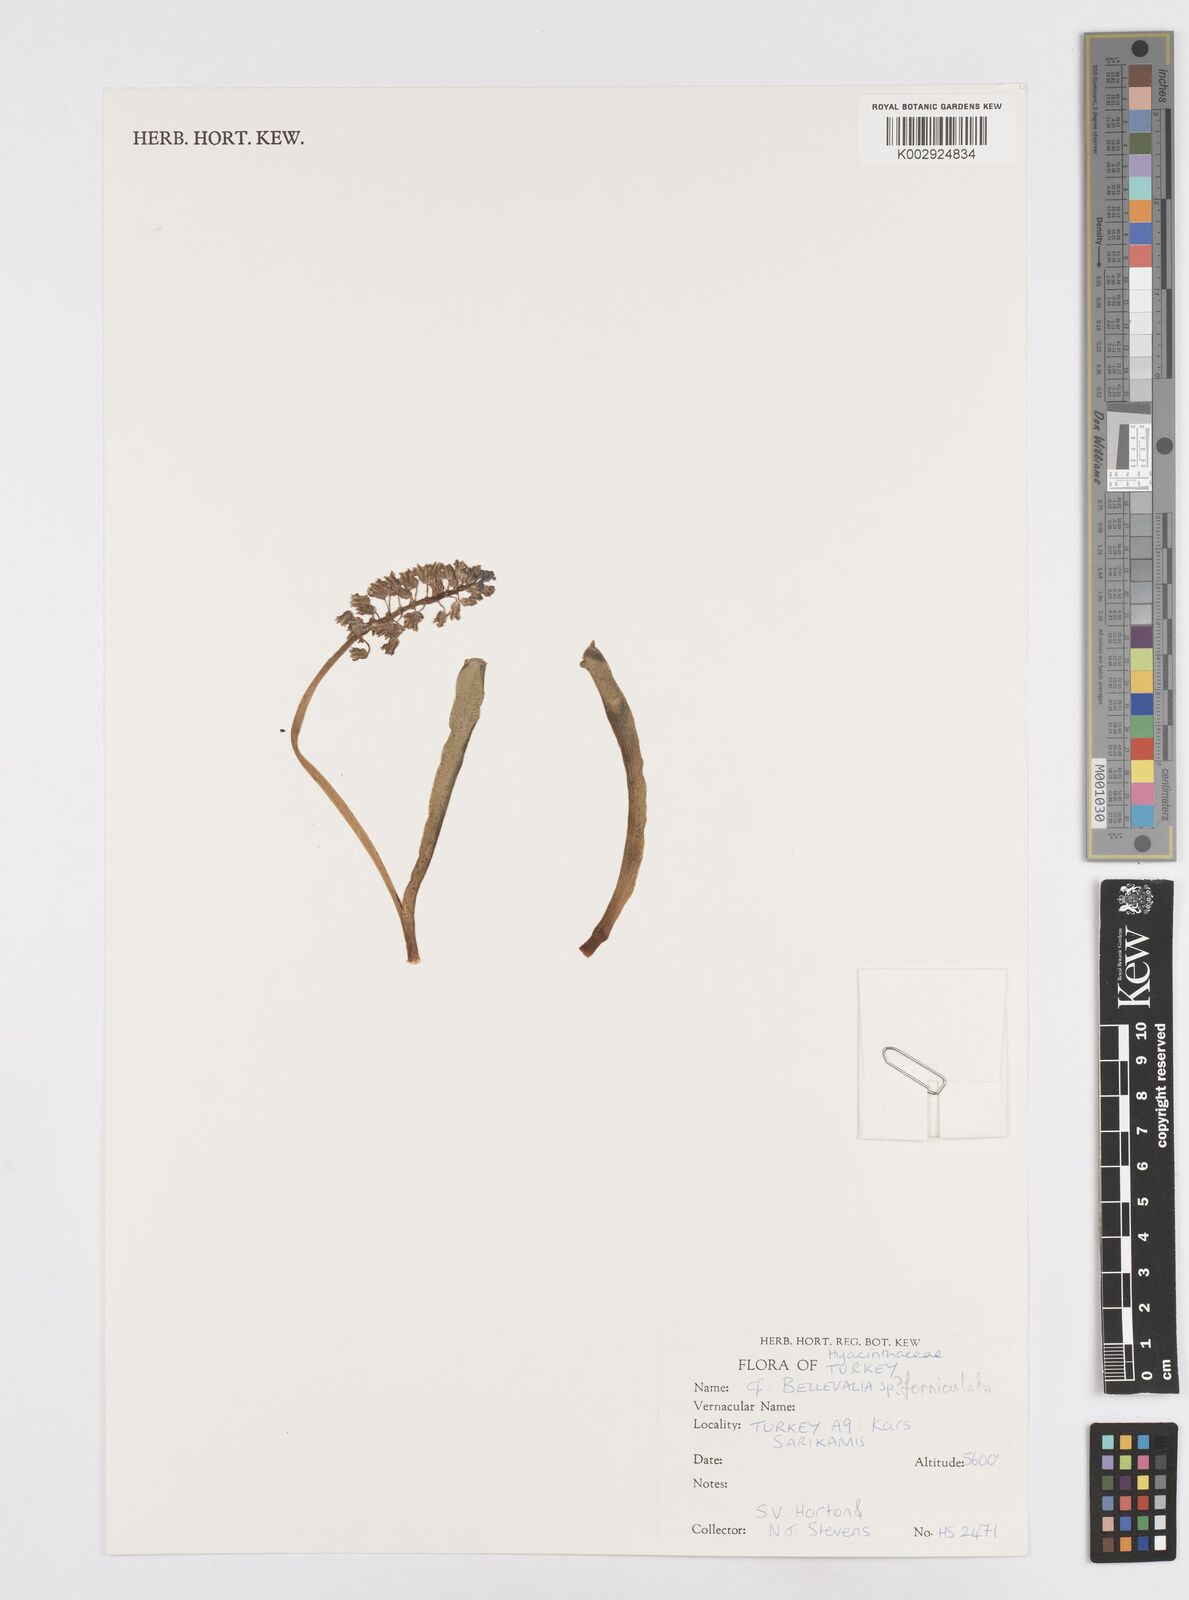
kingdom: Plantae
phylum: Tracheophyta
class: Liliopsida
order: Asparagales
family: Asparagaceae
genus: Bellevalia
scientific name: Bellevalia
